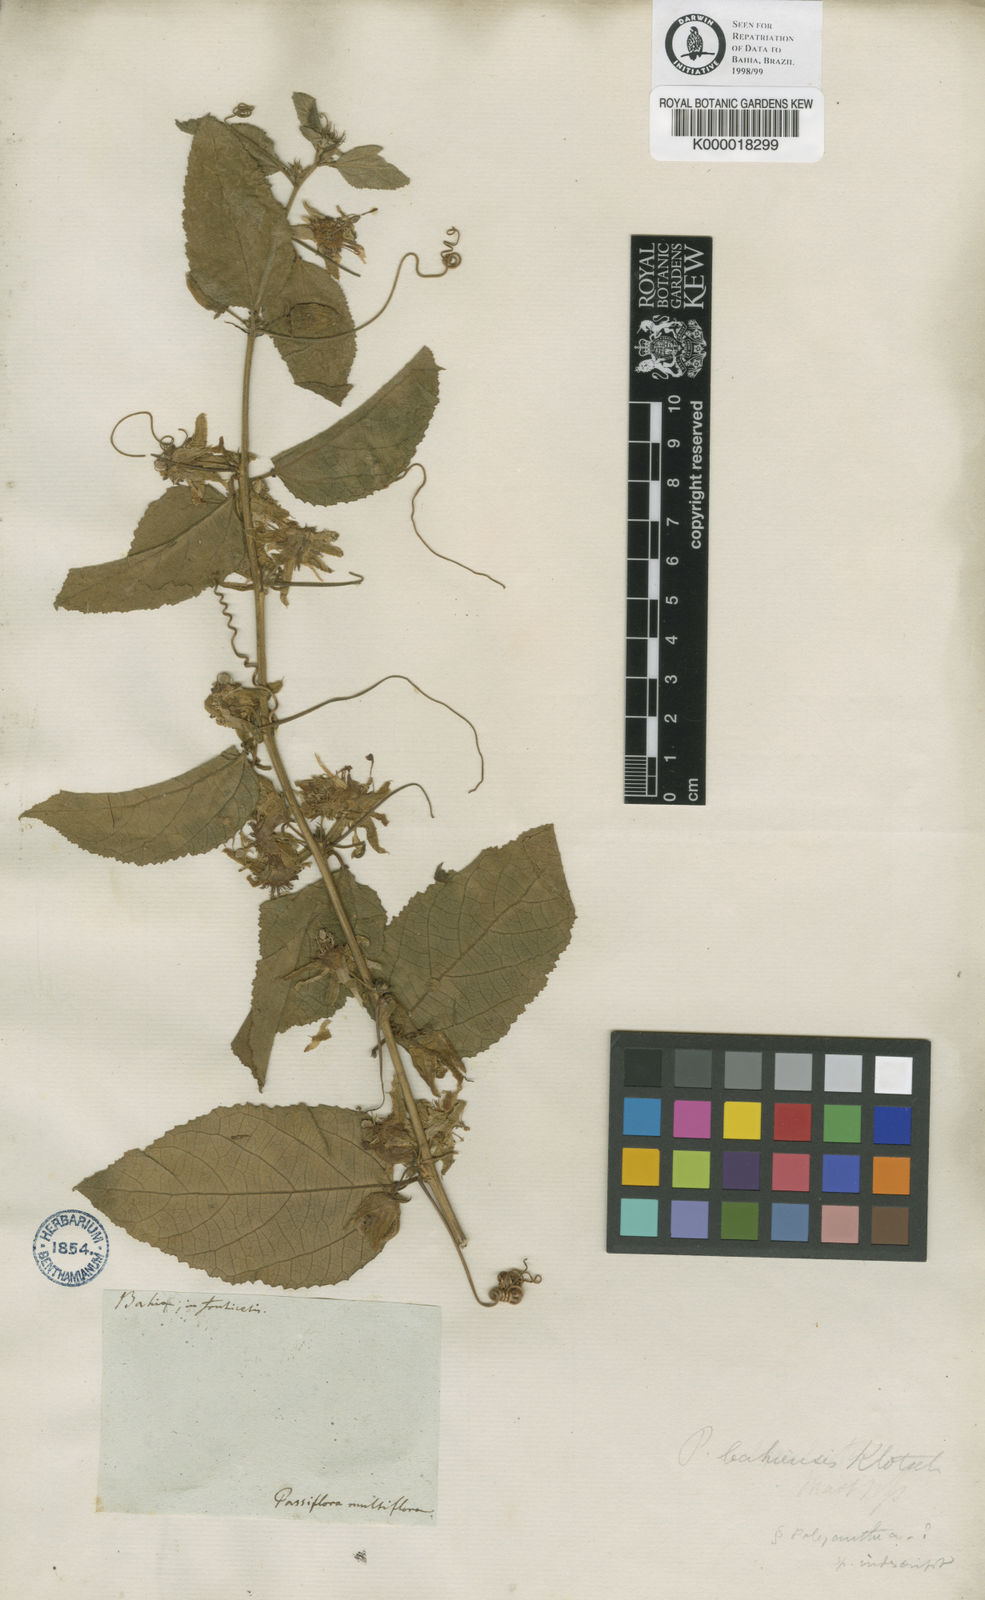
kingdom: Plantae
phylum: Tracheophyta
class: Magnoliopsida
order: Malpighiales
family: Passifloraceae
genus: Passiflora
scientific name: Passiflora
